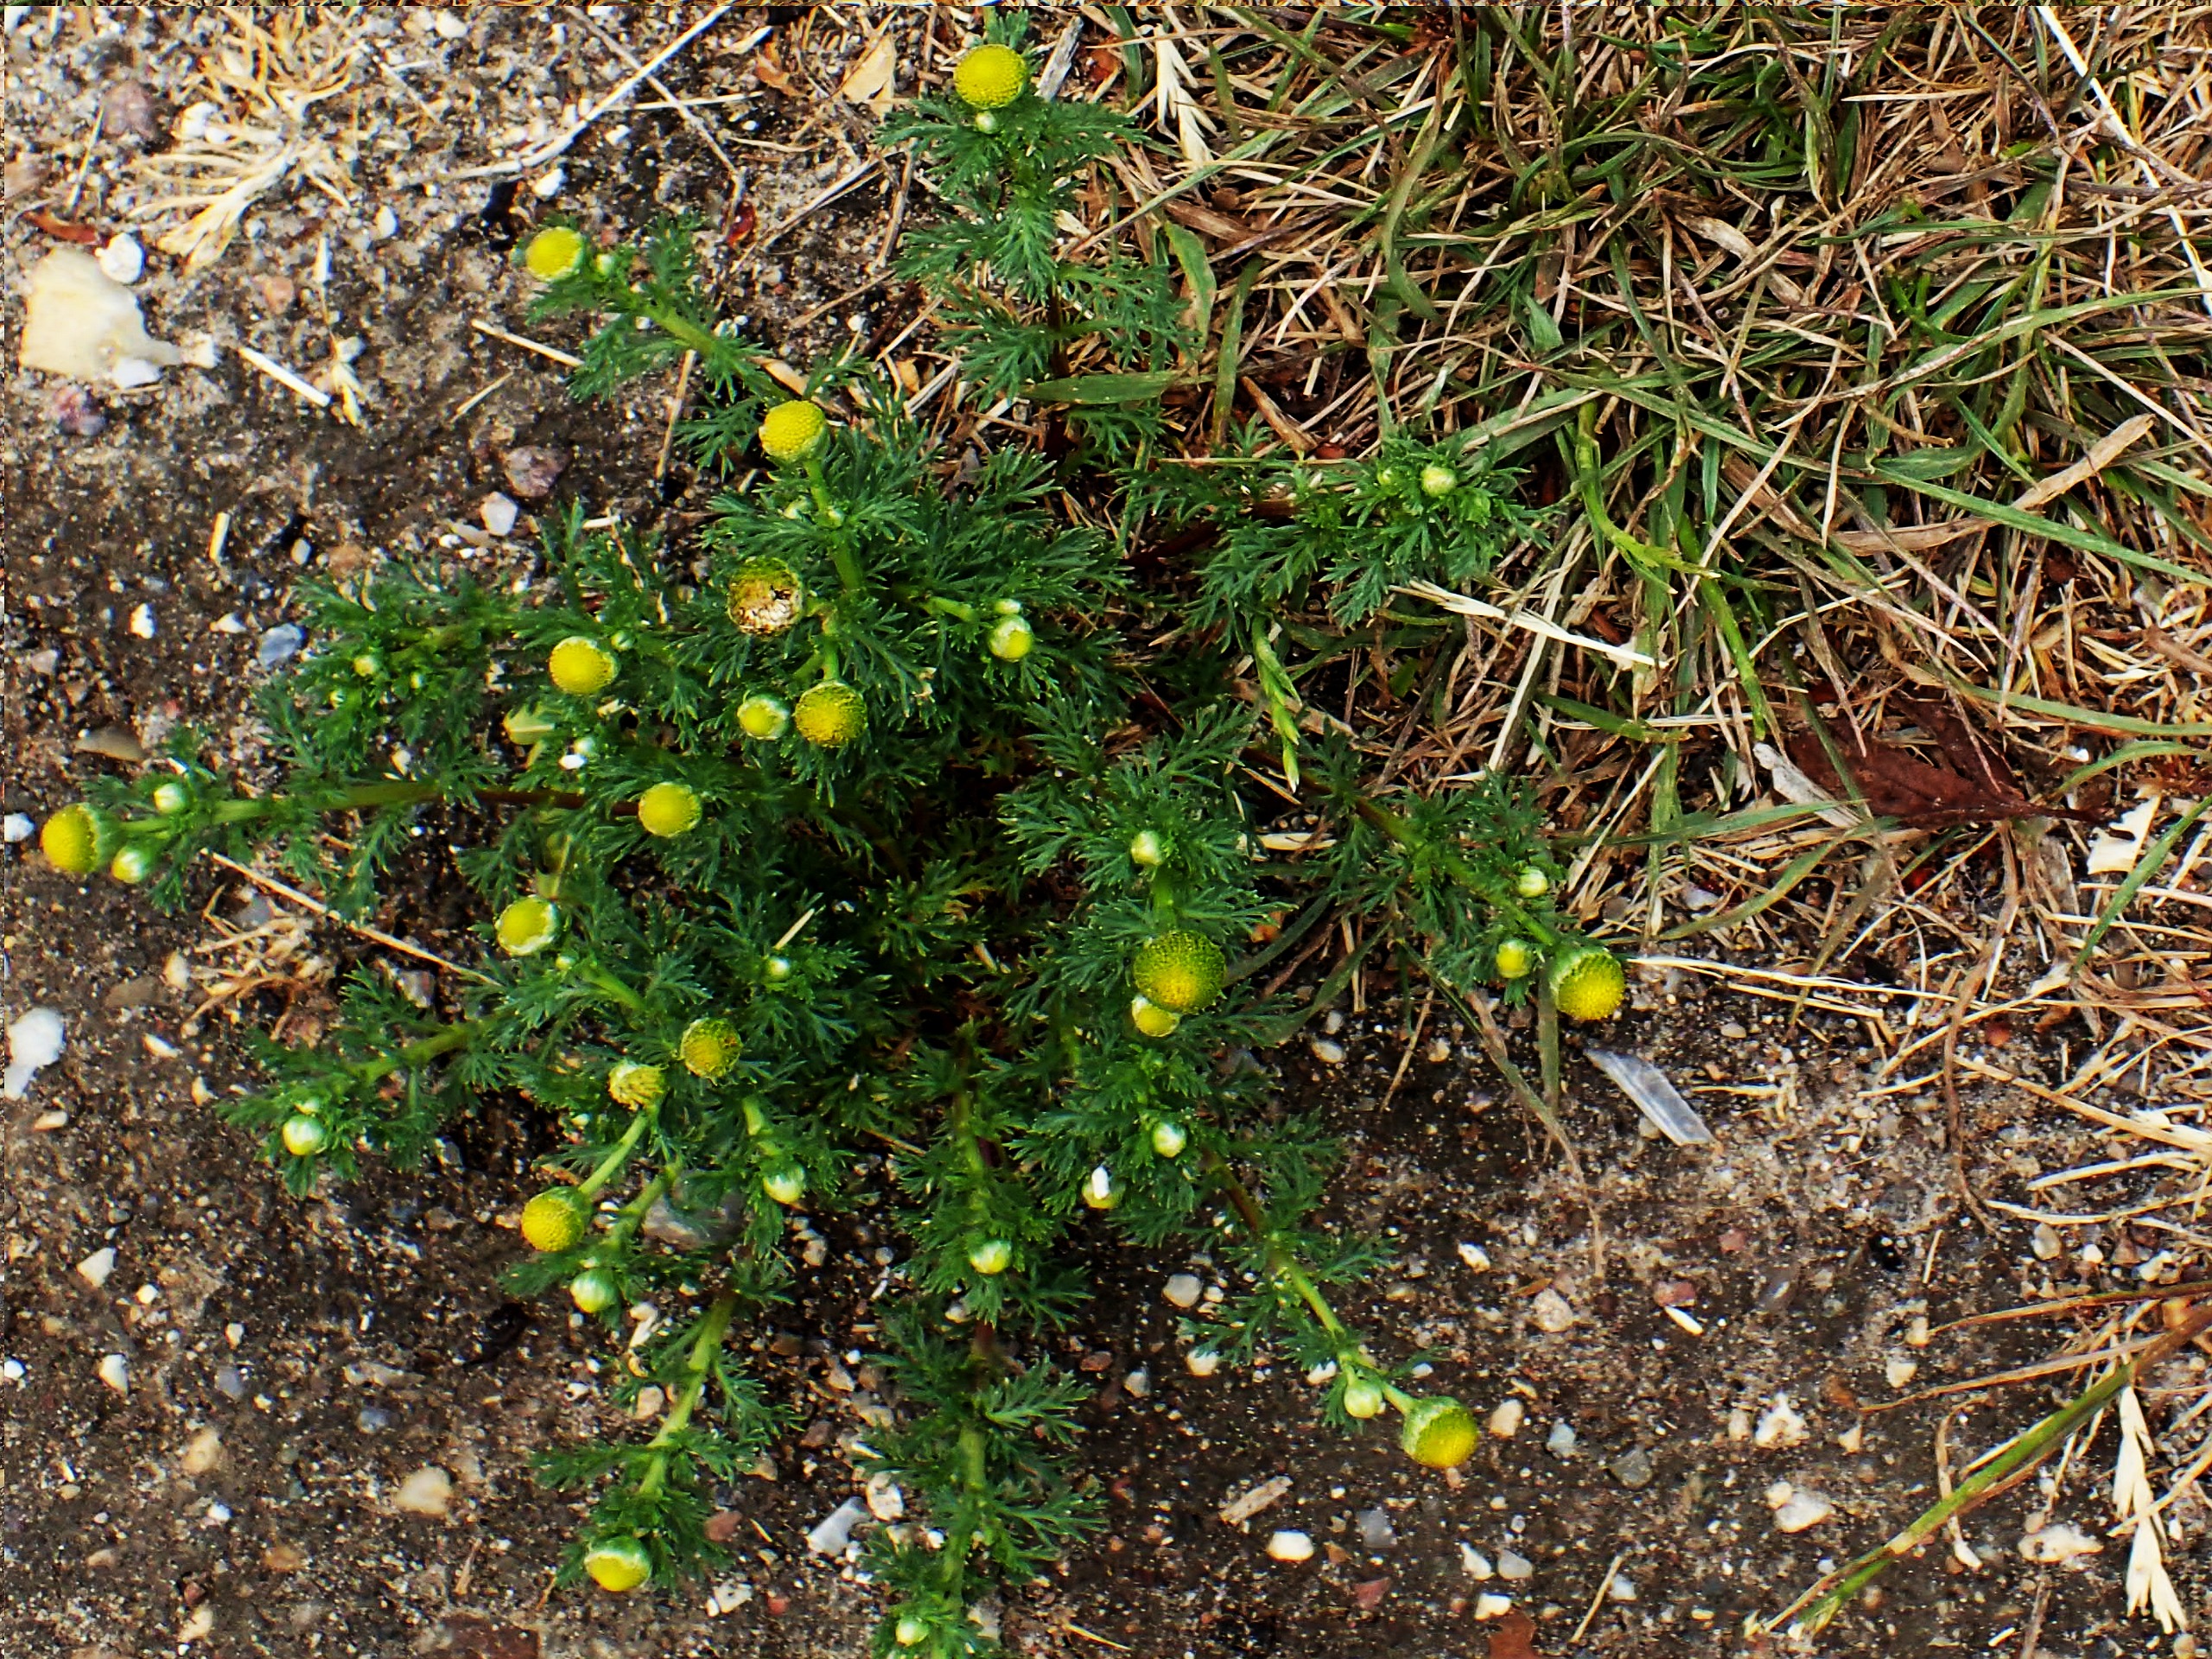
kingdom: Plantae
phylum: Tracheophyta
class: Magnoliopsida
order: Asterales
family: Asteraceae
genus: Matricaria
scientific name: Matricaria discoidea
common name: Skive-kamille
